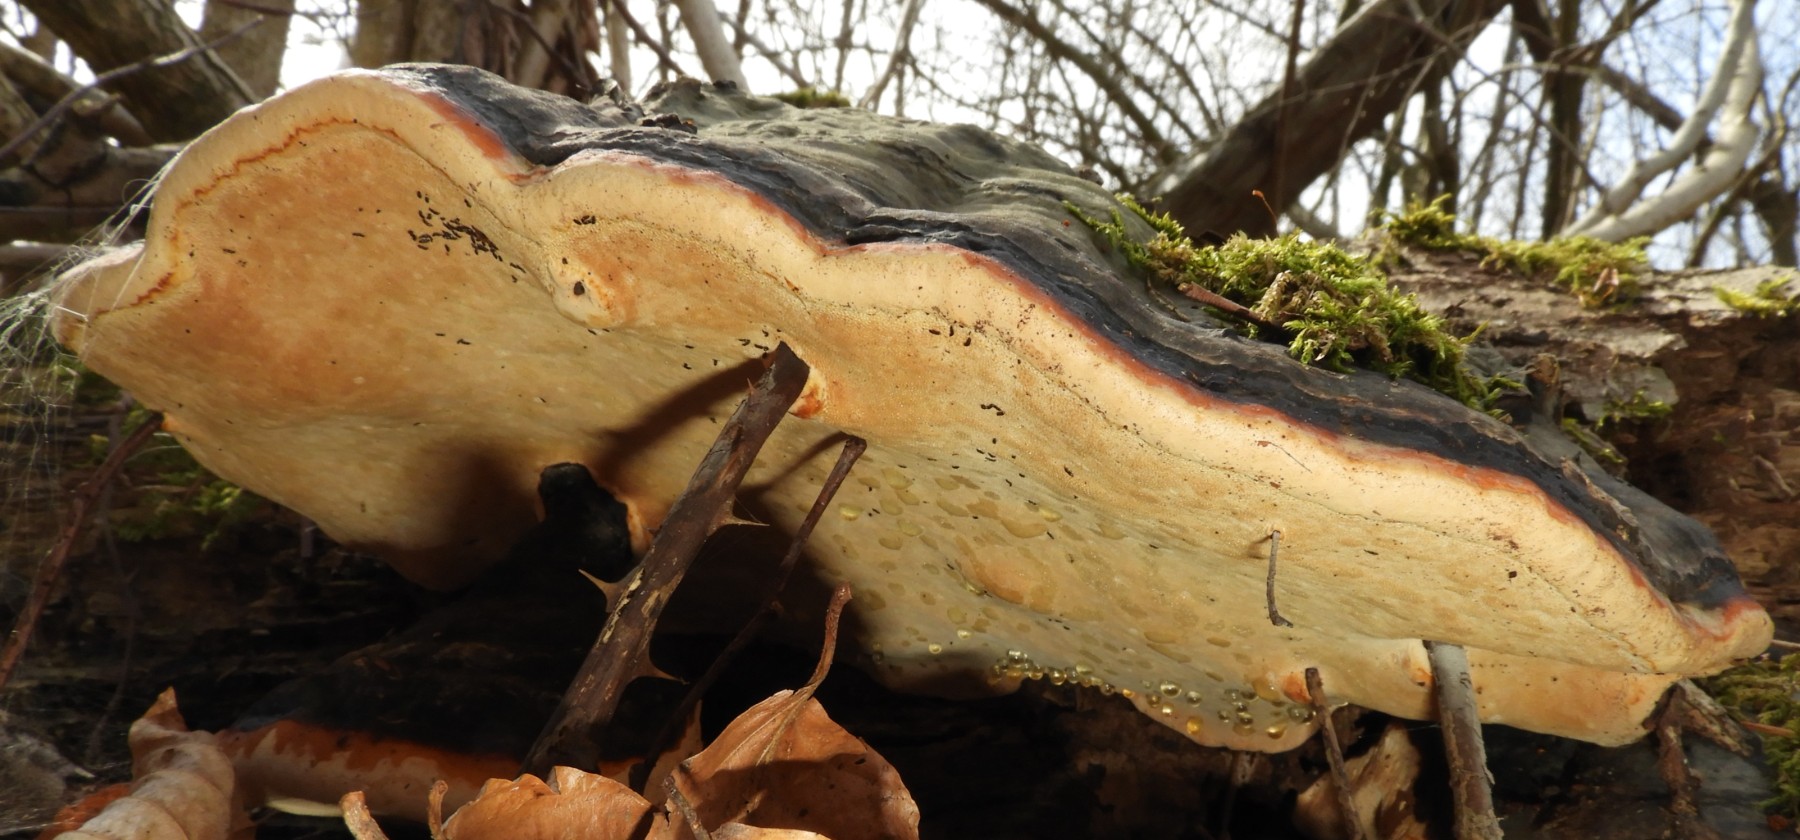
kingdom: Fungi
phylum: Basidiomycota
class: Agaricomycetes
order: Polyporales
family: Fomitopsidaceae
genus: Fomitopsis
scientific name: Fomitopsis pinicola
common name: randbæltet hovporesvamp
